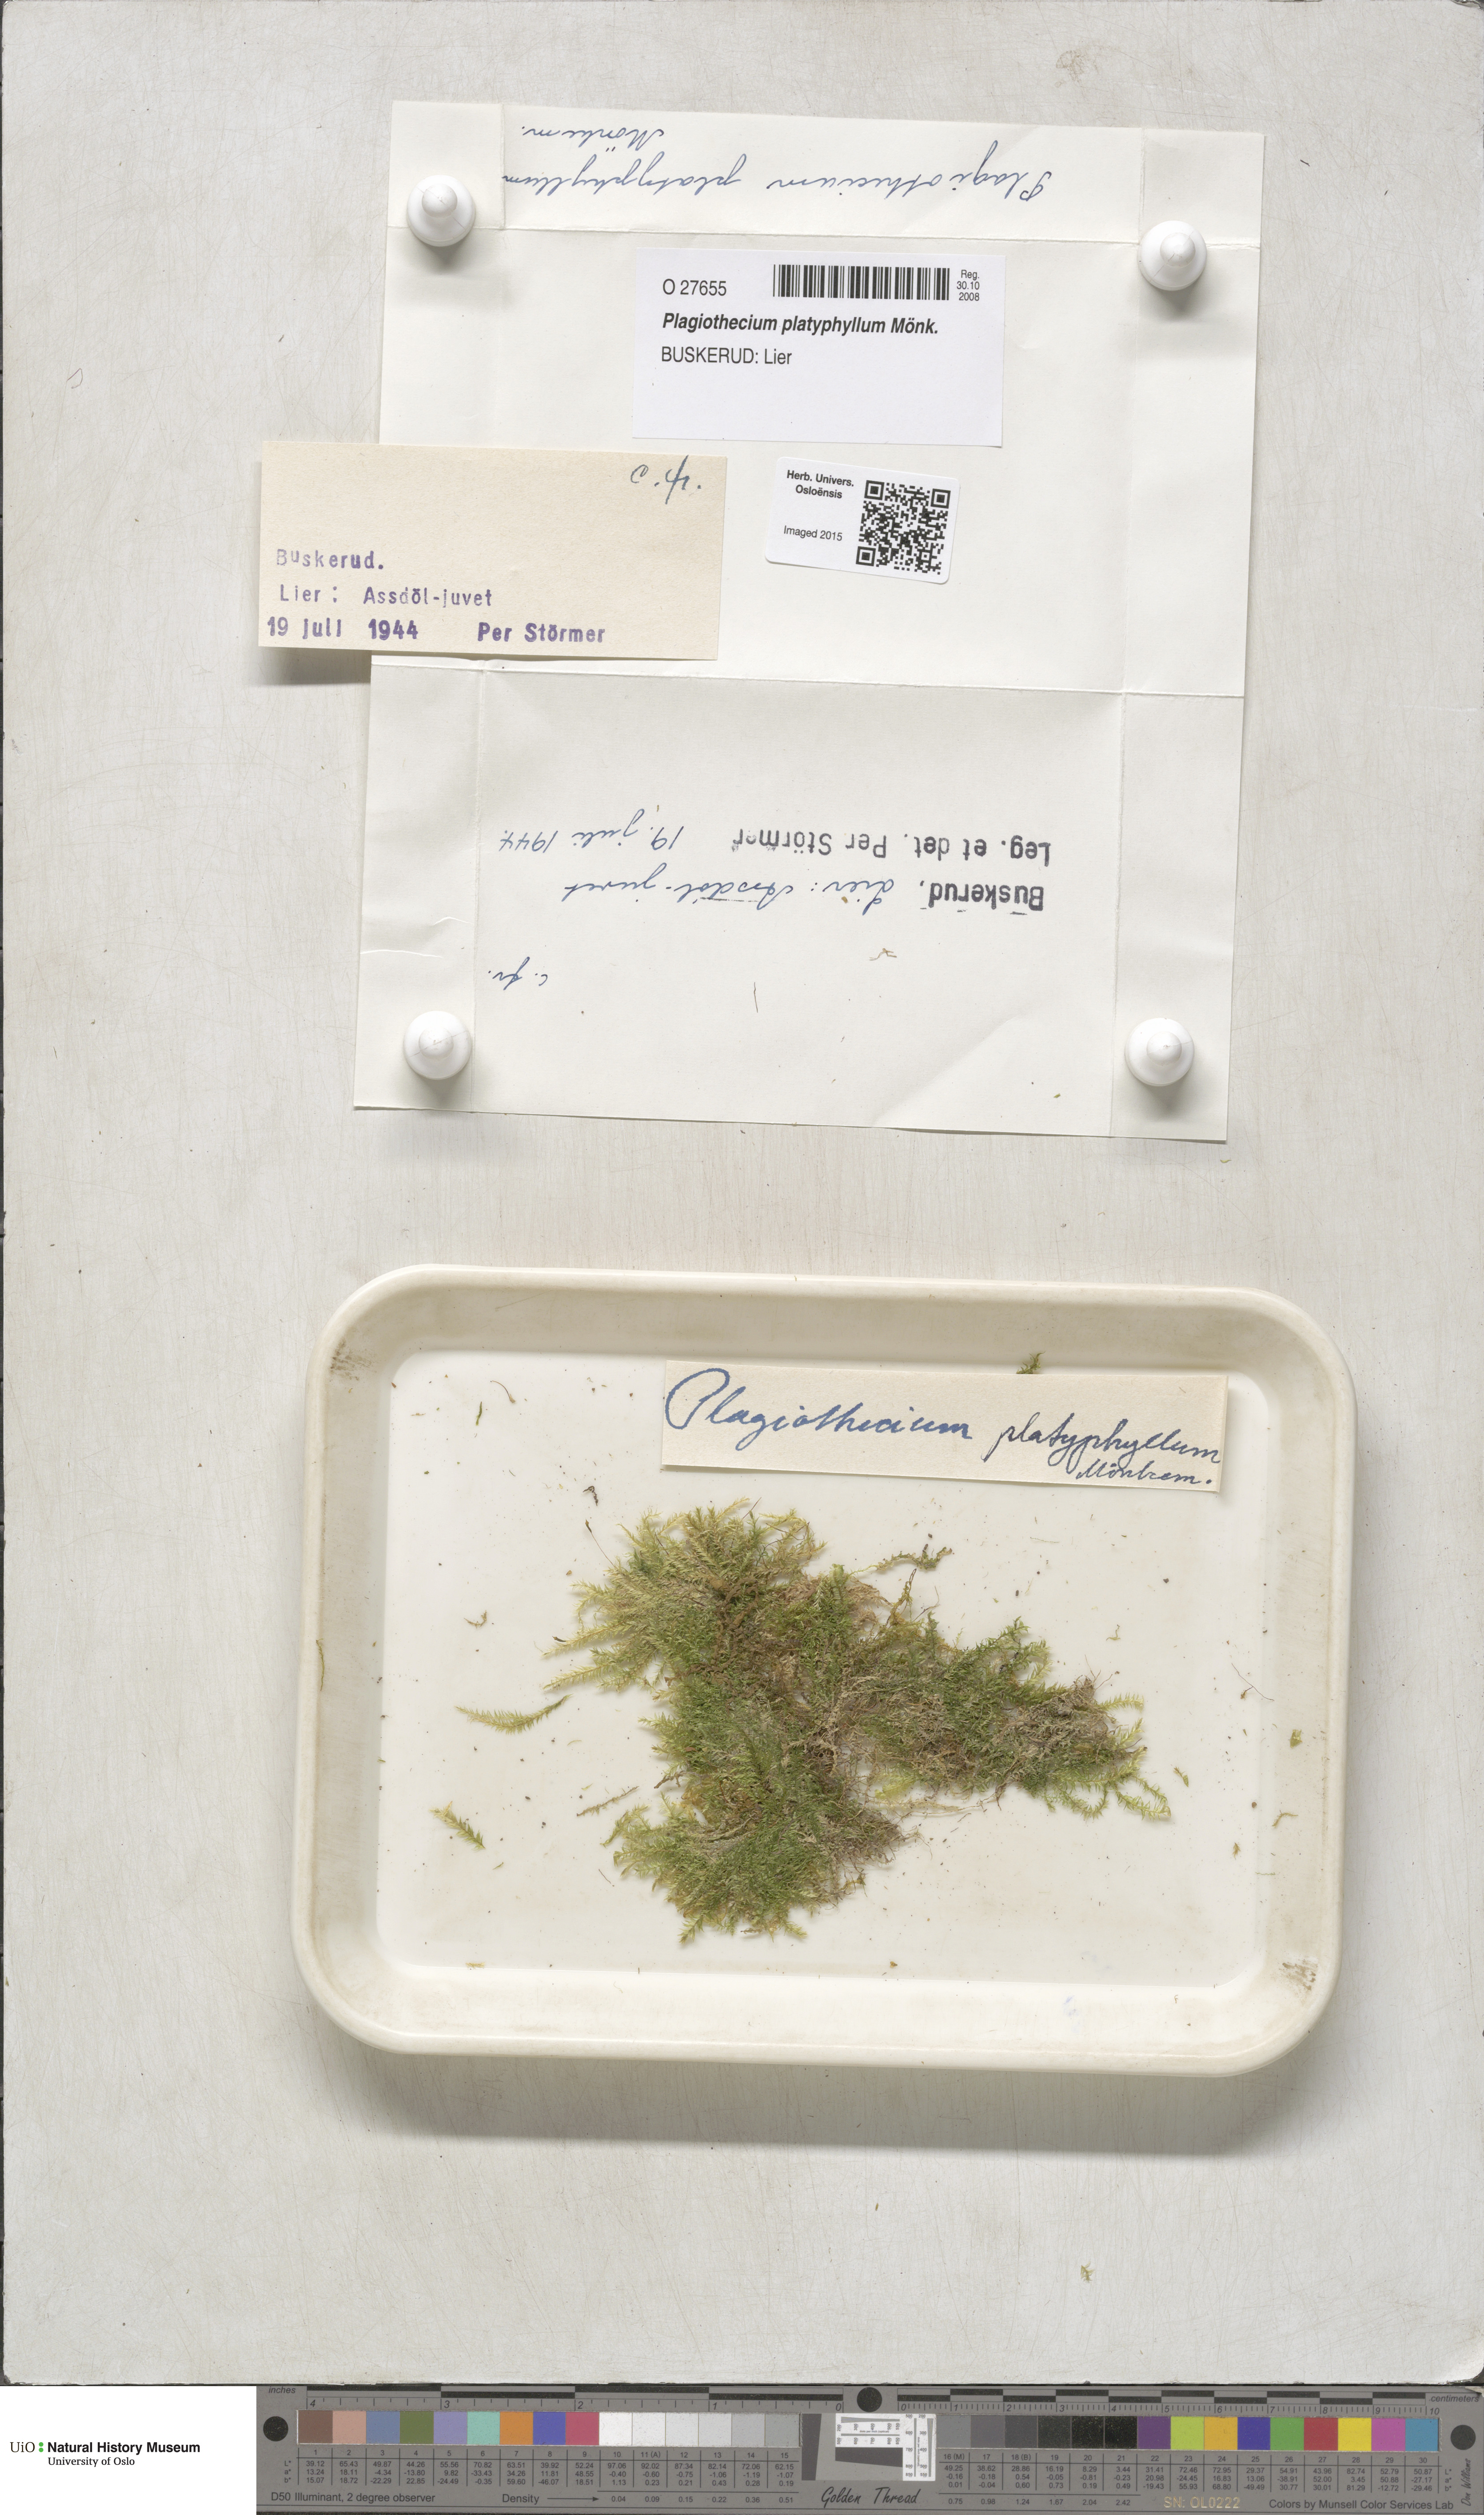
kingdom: Plantae
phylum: Bryophyta
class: Bryopsida
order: Hypnales
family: Plagiotheciaceae
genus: Plagiothecium
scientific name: Plagiothecium platyphyllum
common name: Alpine silk-moss
